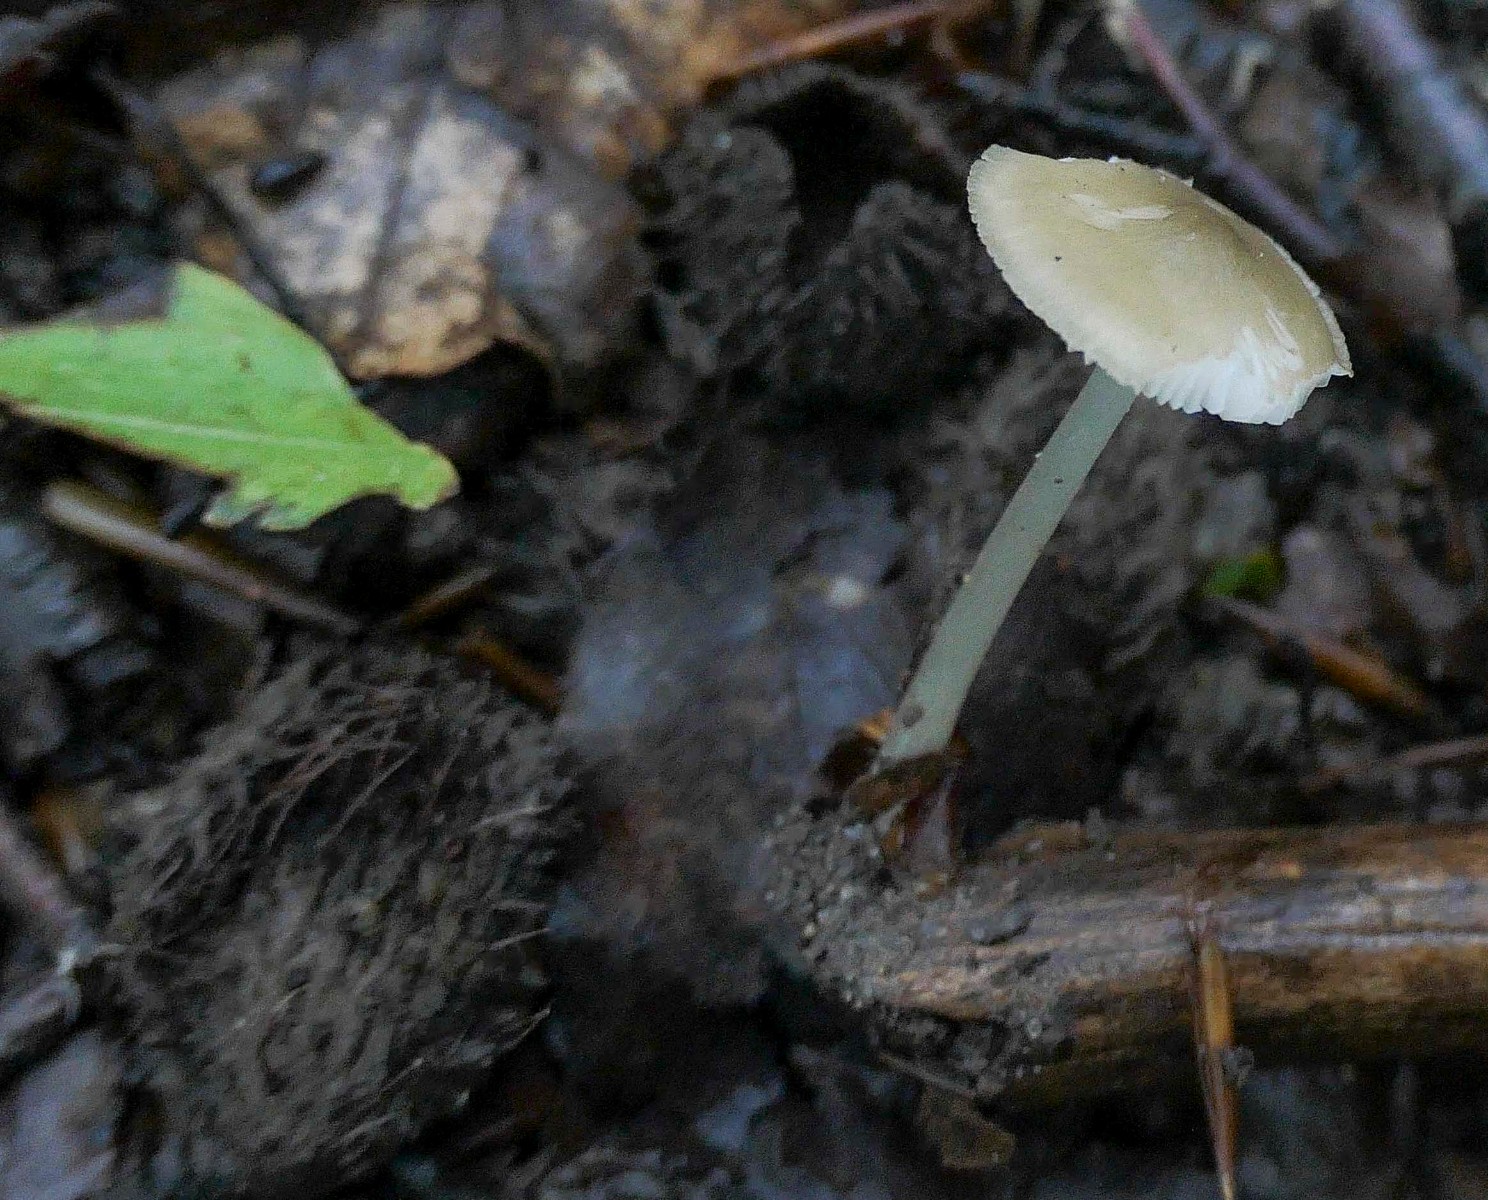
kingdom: Fungi
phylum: Basidiomycota
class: Agaricomycetes
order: Agaricales
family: Porotheleaceae
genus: Hydropodia
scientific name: Hydropodia subalpina
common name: vår-fnugfod
